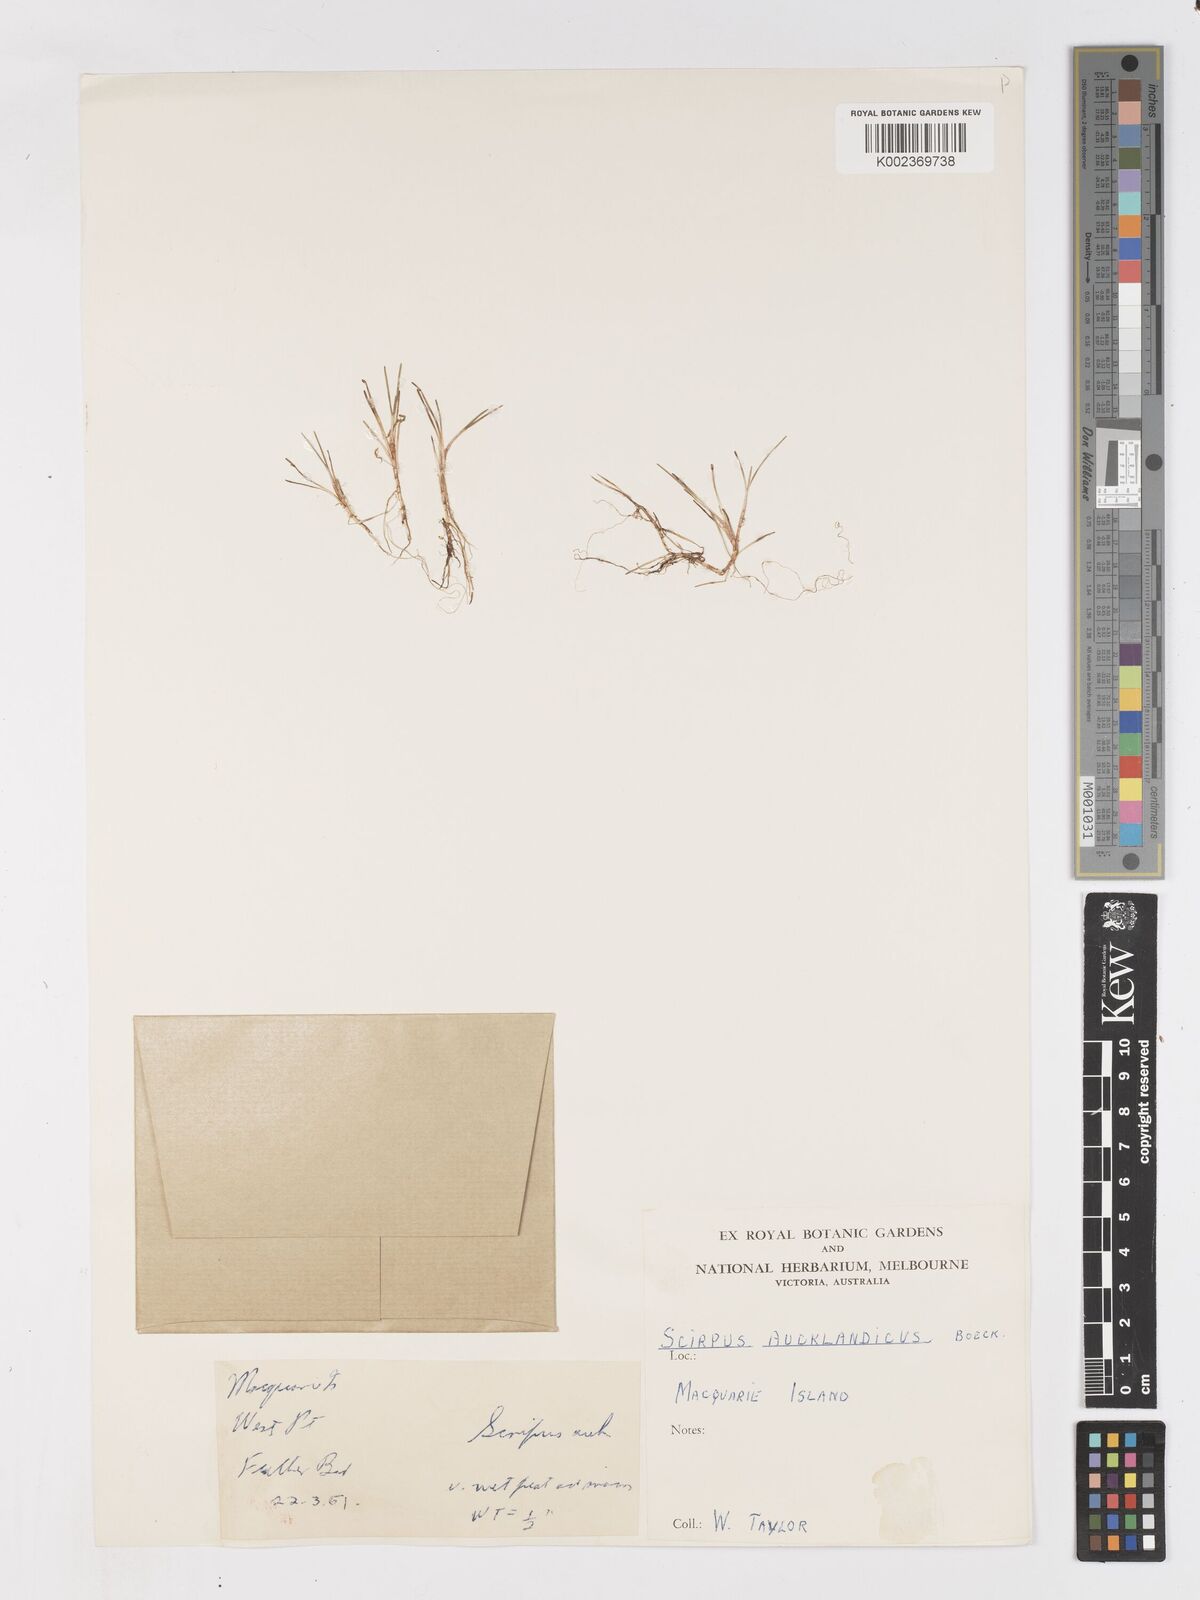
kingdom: Plantae
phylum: Tracheophyta
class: Liliopsida
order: Poales
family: Cyperaceae
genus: Isolepis
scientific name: Isolepis aucklandica
